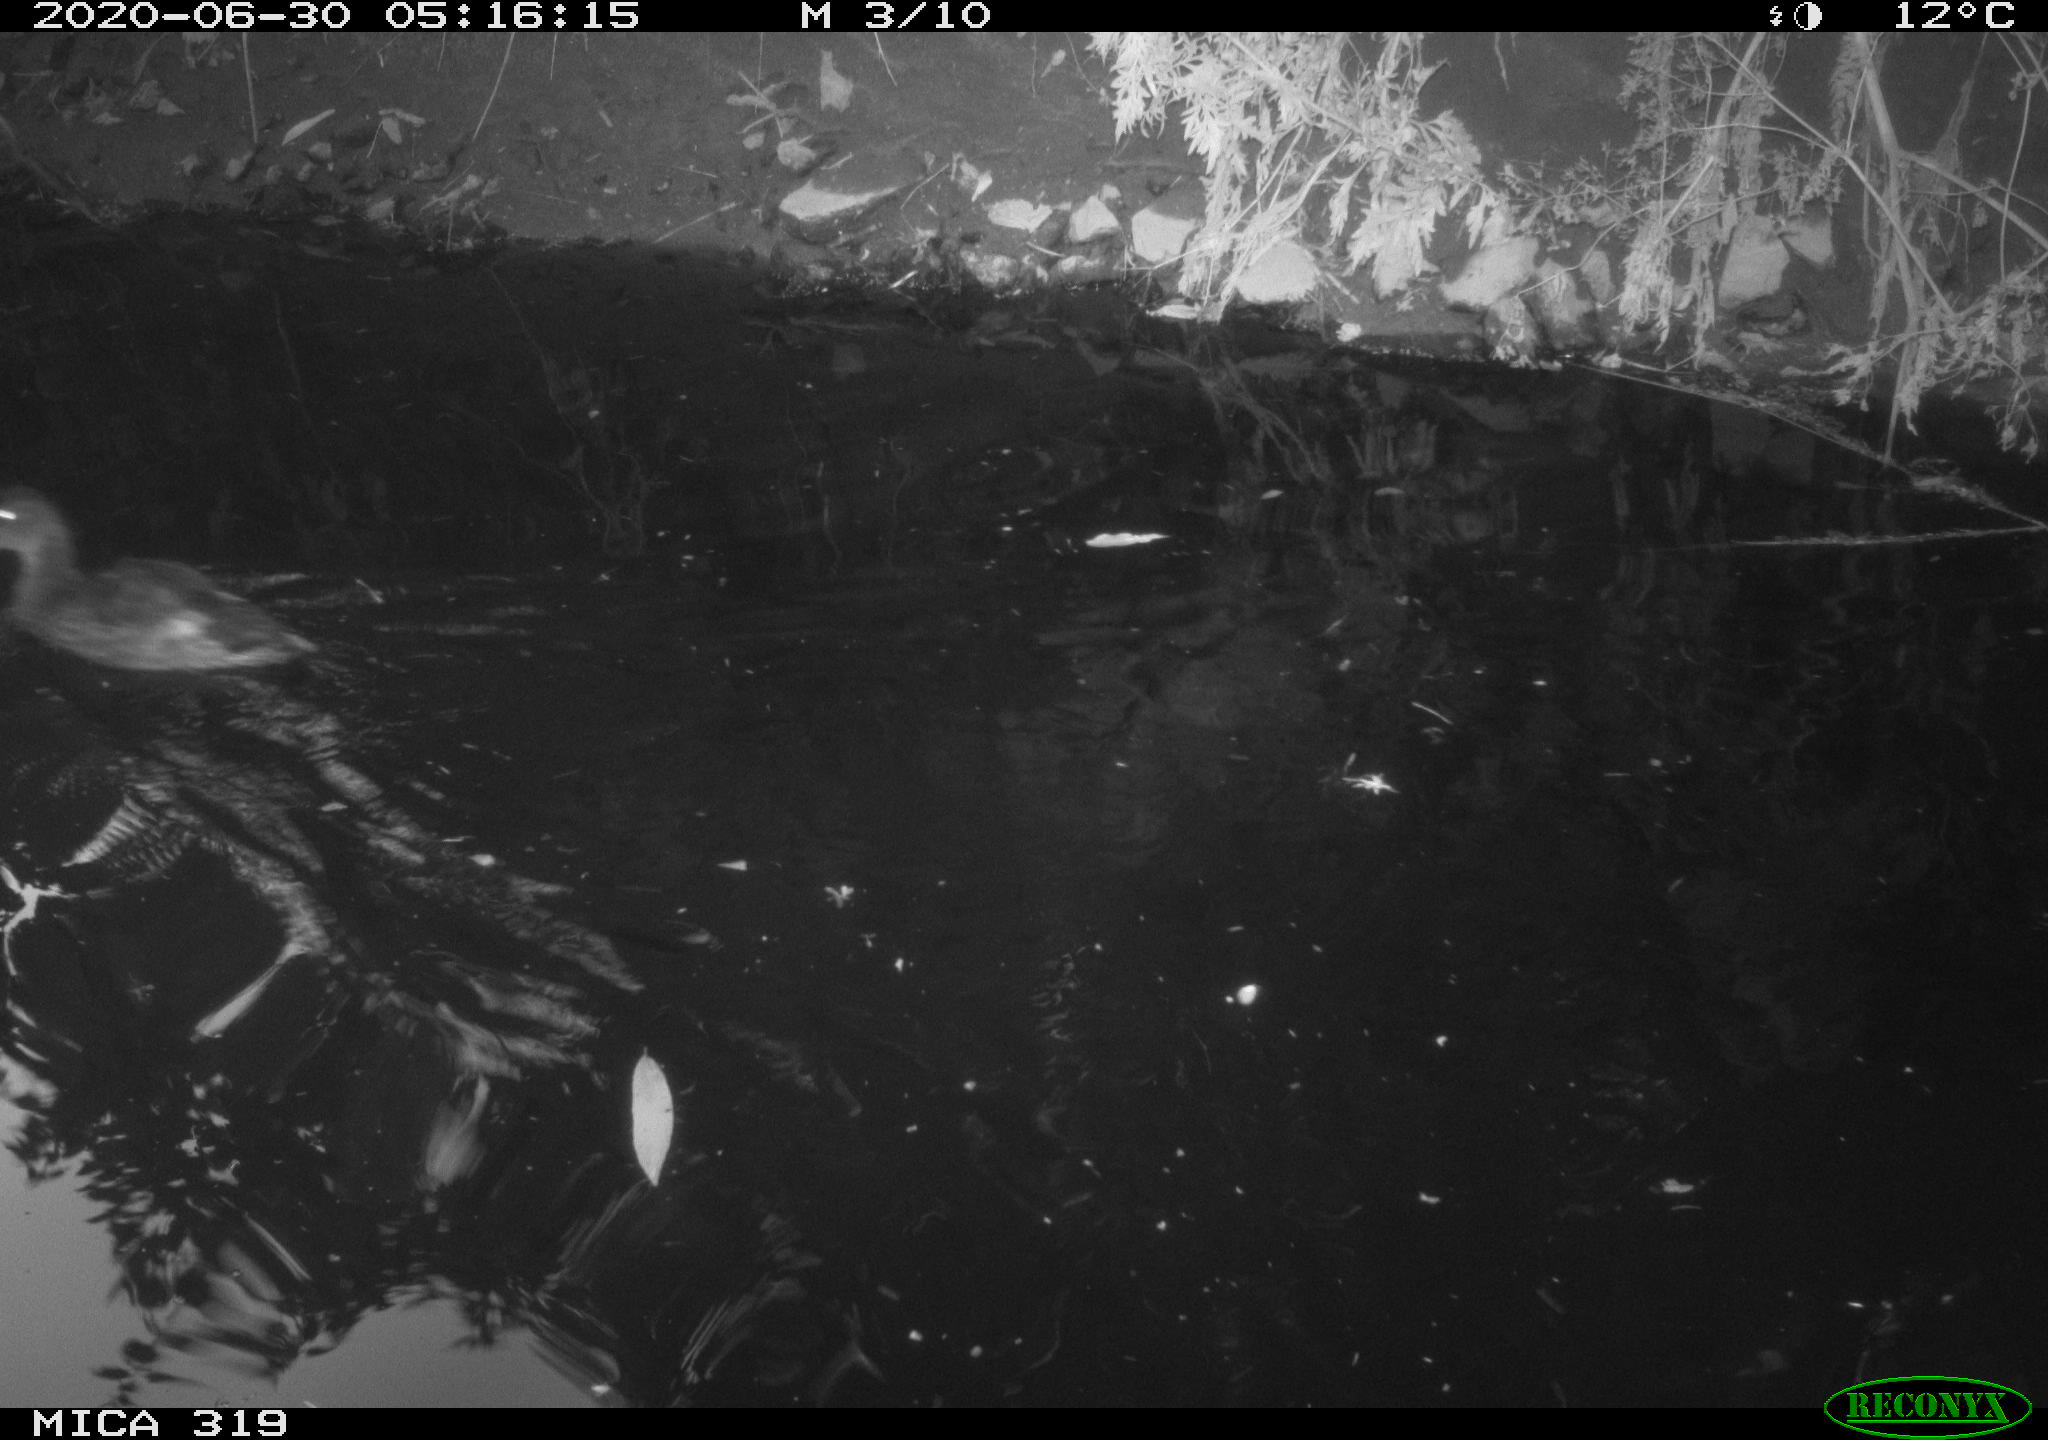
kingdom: Animalia
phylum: Chordata
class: Aves
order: Anseriformes
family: Anatidae
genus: Anas
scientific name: Anas platyrhynchos
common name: Mallard
